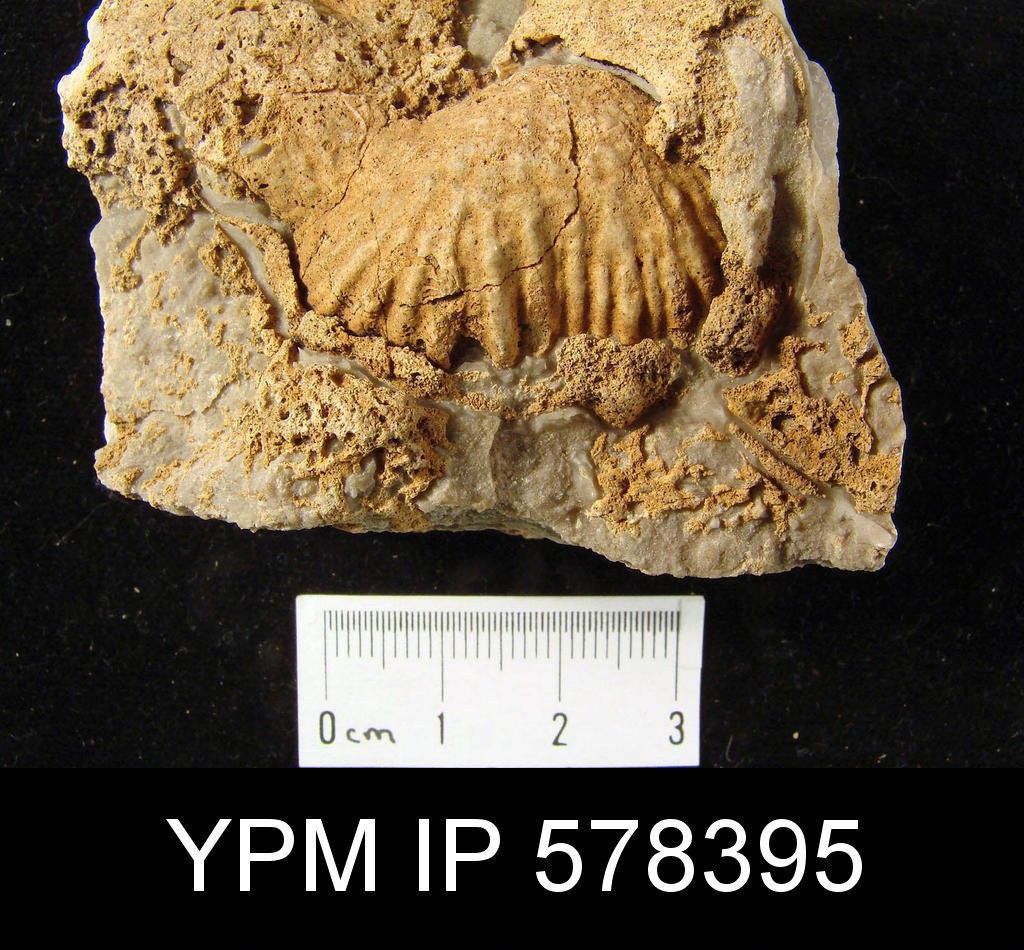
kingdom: Animalia
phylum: Brachiopoda
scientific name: Brachiopoda
